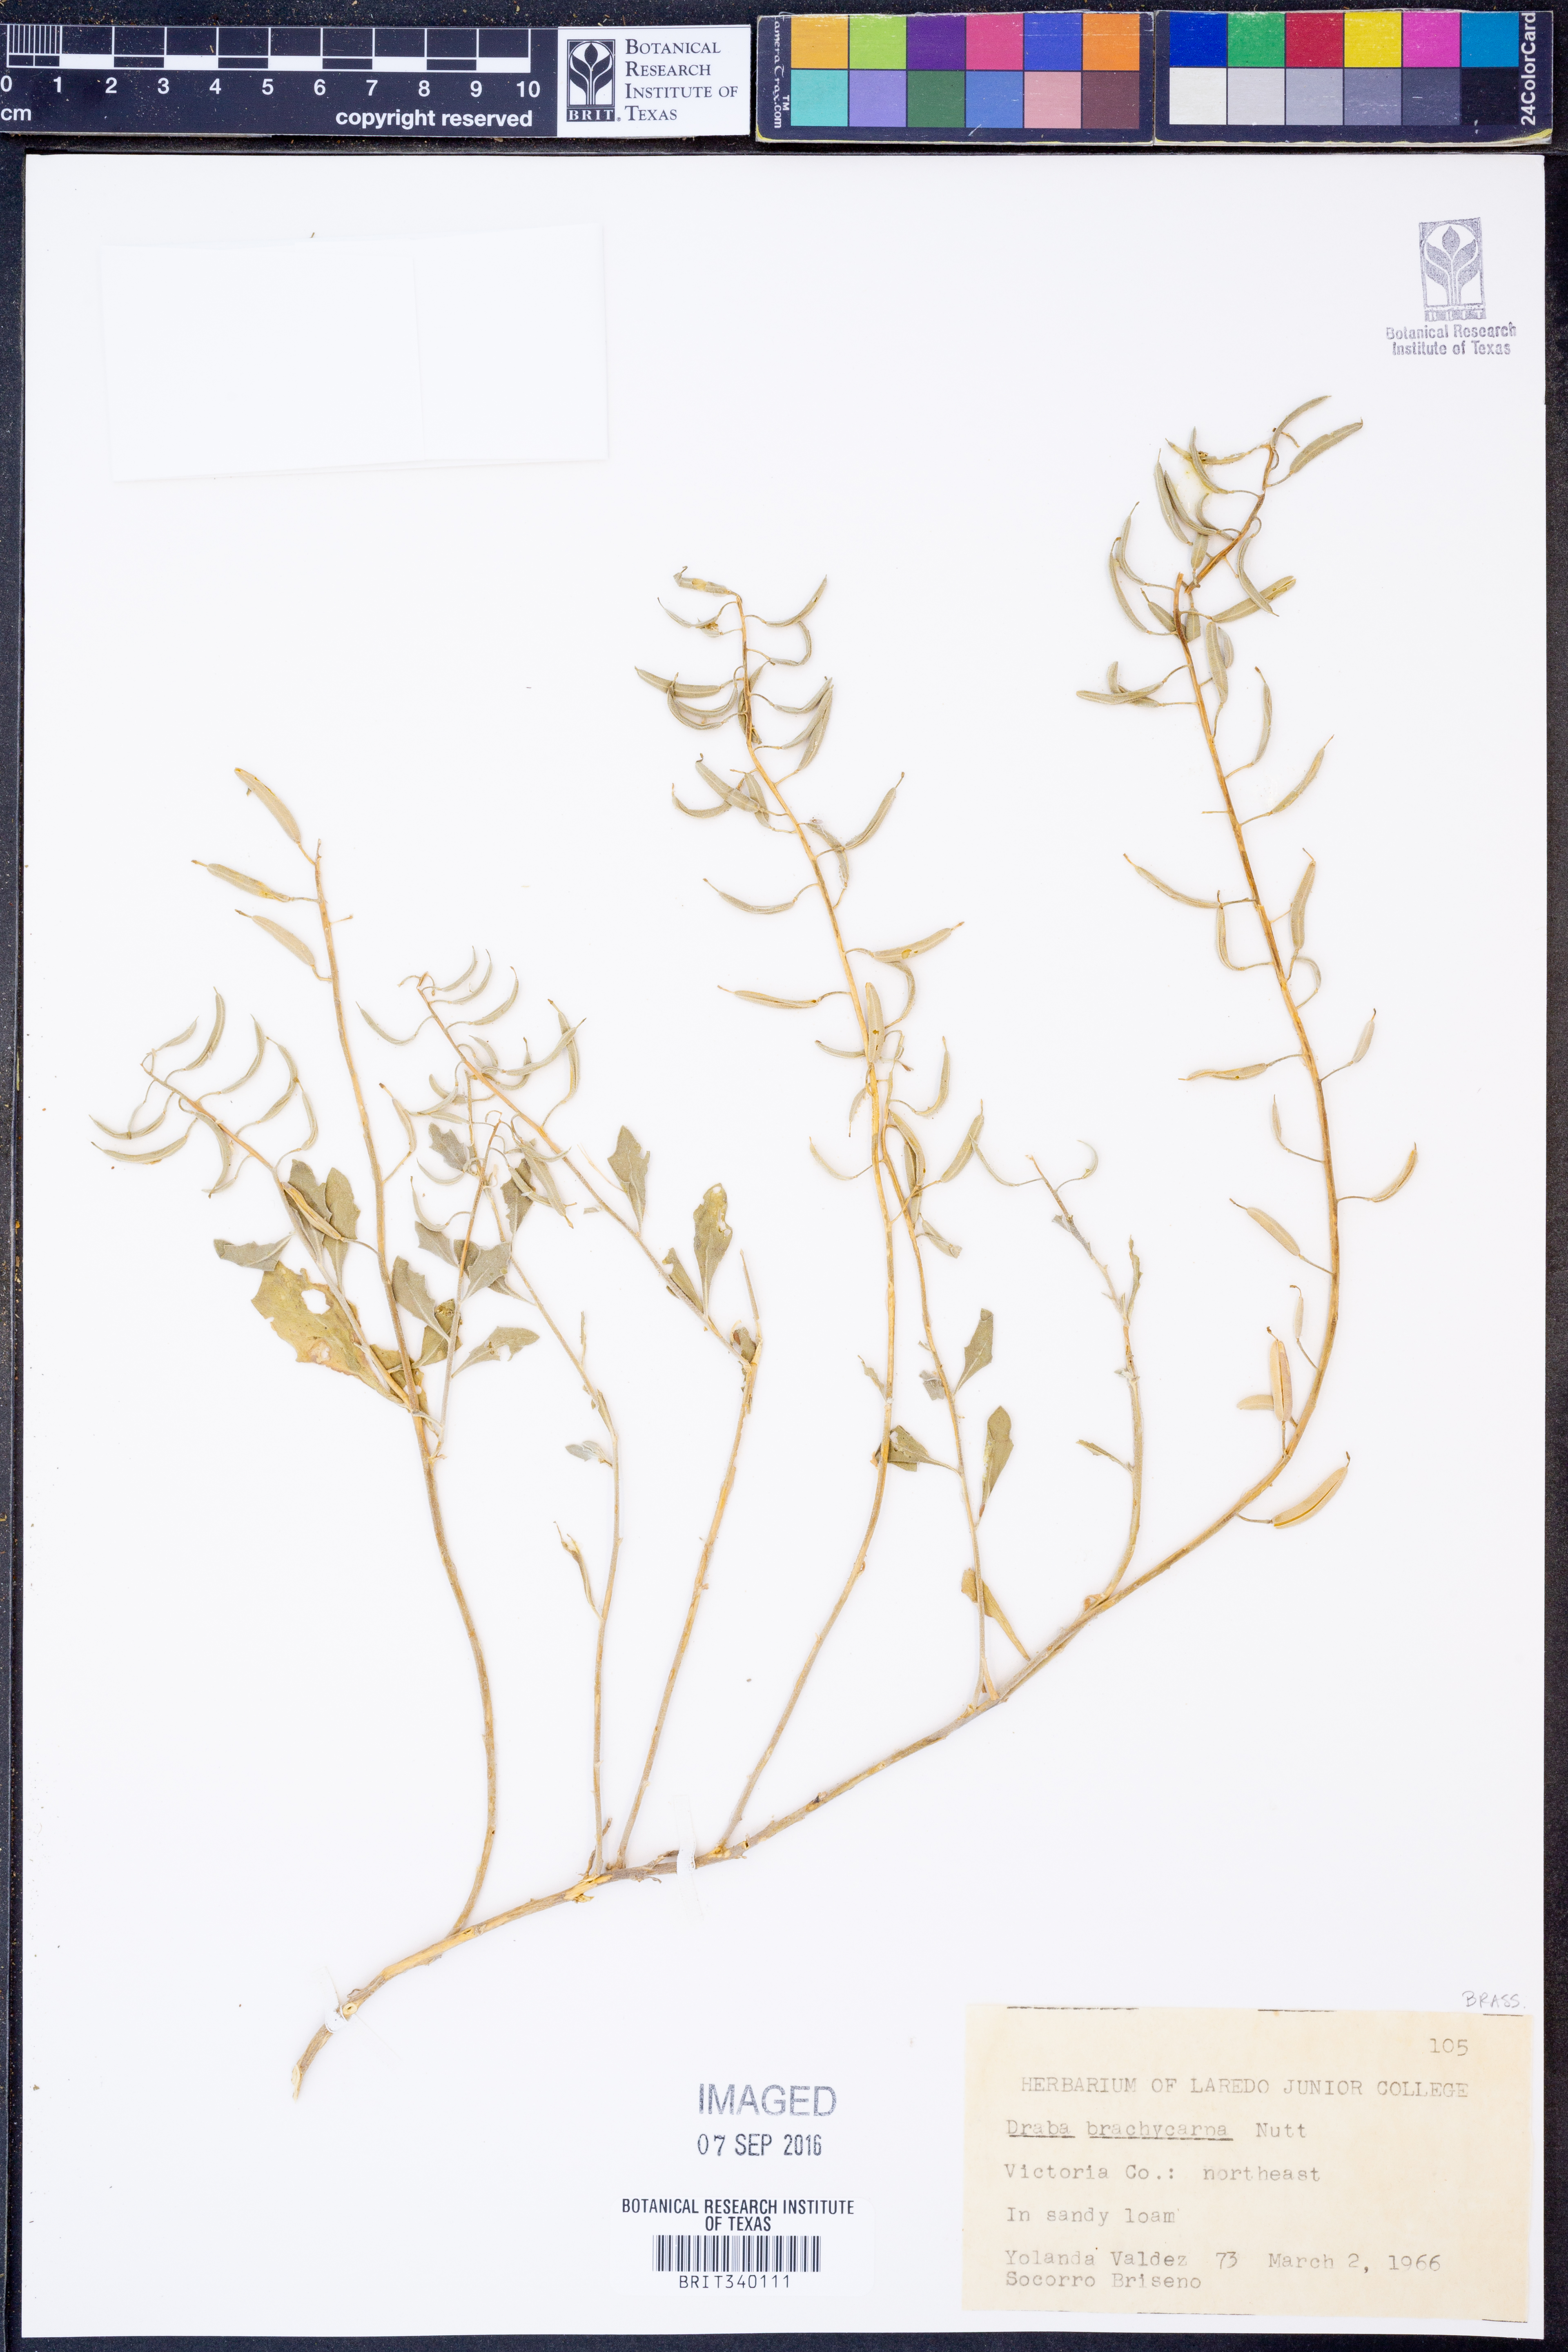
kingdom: Plantae
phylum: Tracheophyta
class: Magnoliopsida
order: Brassicales
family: Brassicaceae
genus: Abdra
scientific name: Abdra brachycarpa
